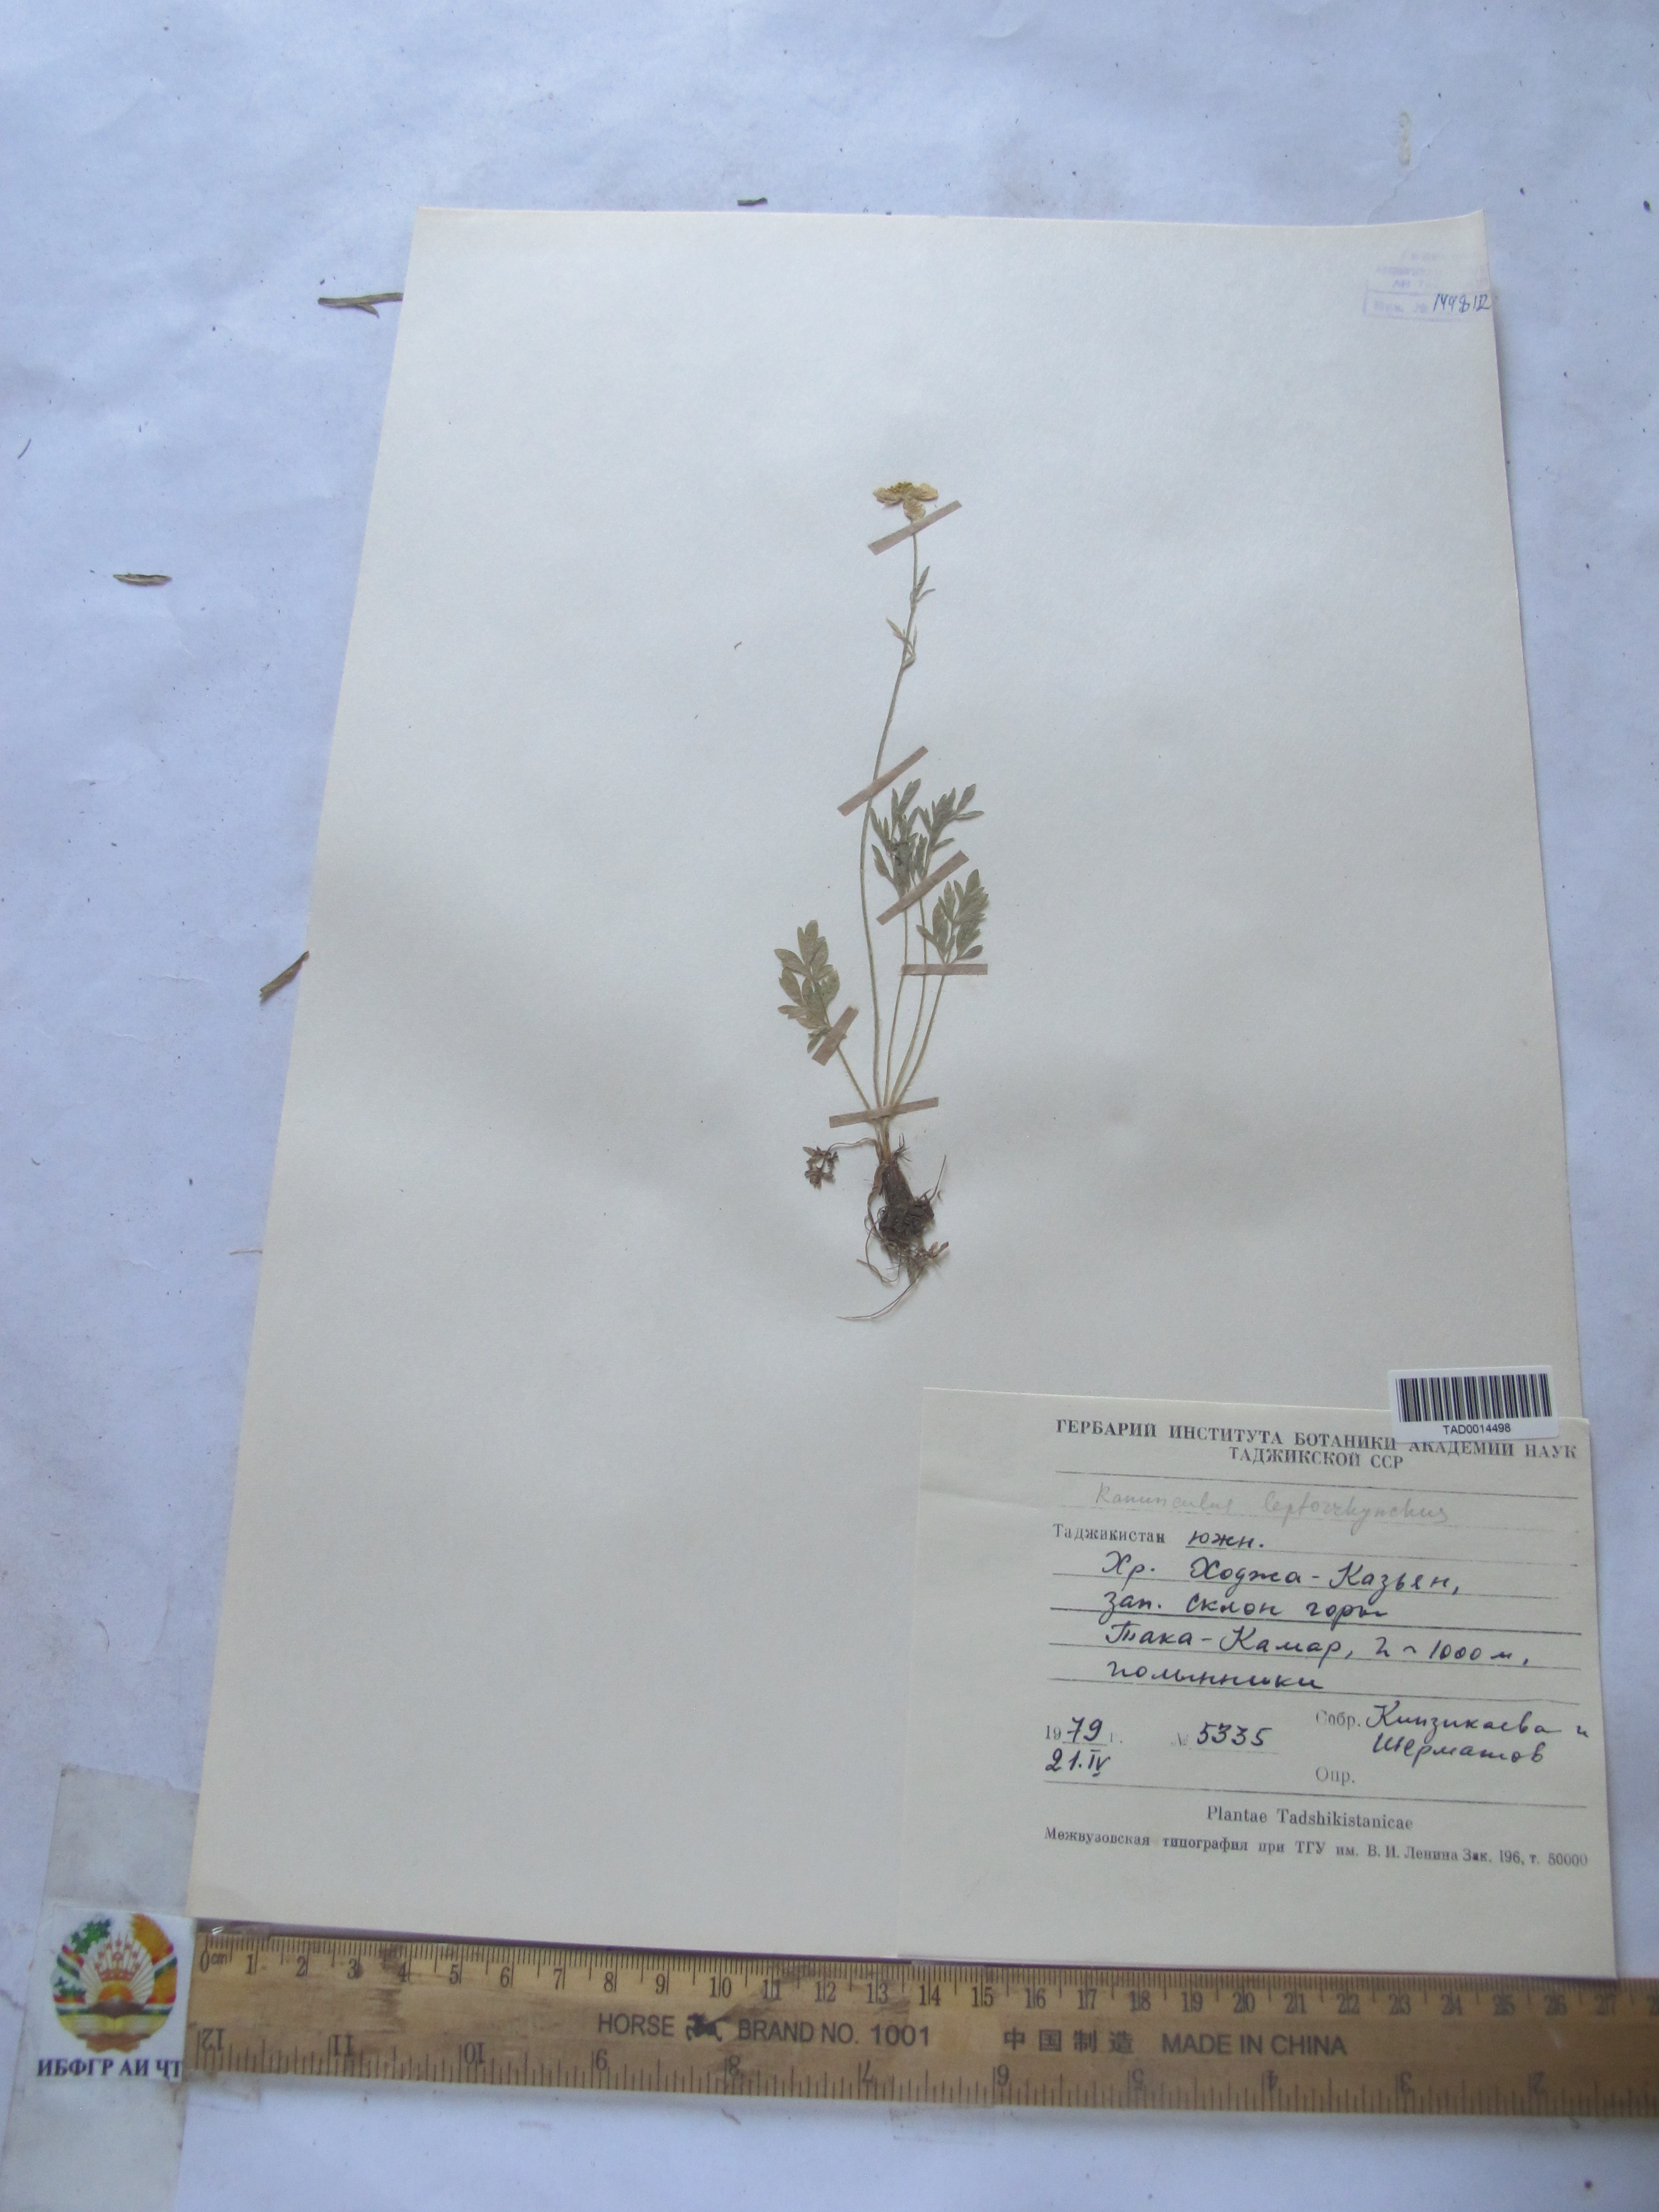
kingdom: Plantae
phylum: Tracheophyta
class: Magnoliopsida
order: Ranunculales
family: Ranunculaceae
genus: Ranunculus
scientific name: Ranunculus leptorrhynchus
